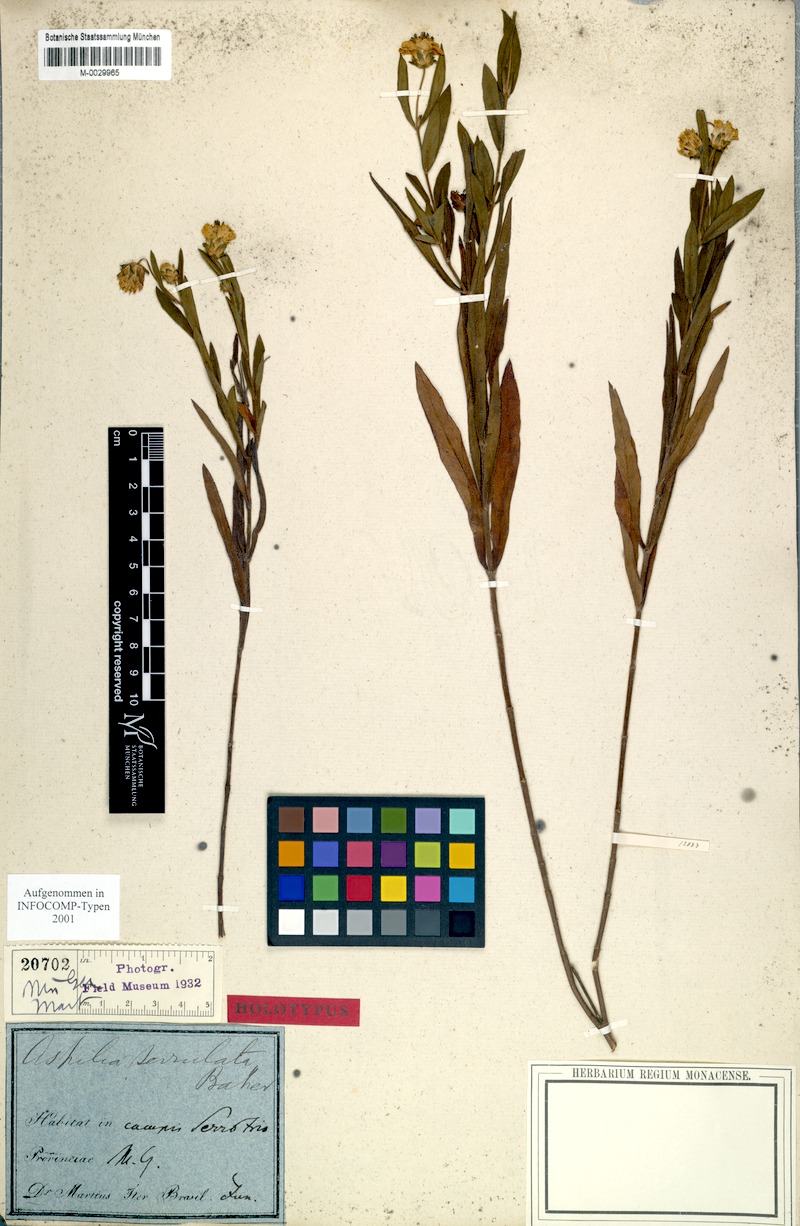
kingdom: Plantae
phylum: Tracheophyta
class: Magnoliopsida
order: Asterales
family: Asteraceae
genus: Wedelia
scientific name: Wedelia serrulata
